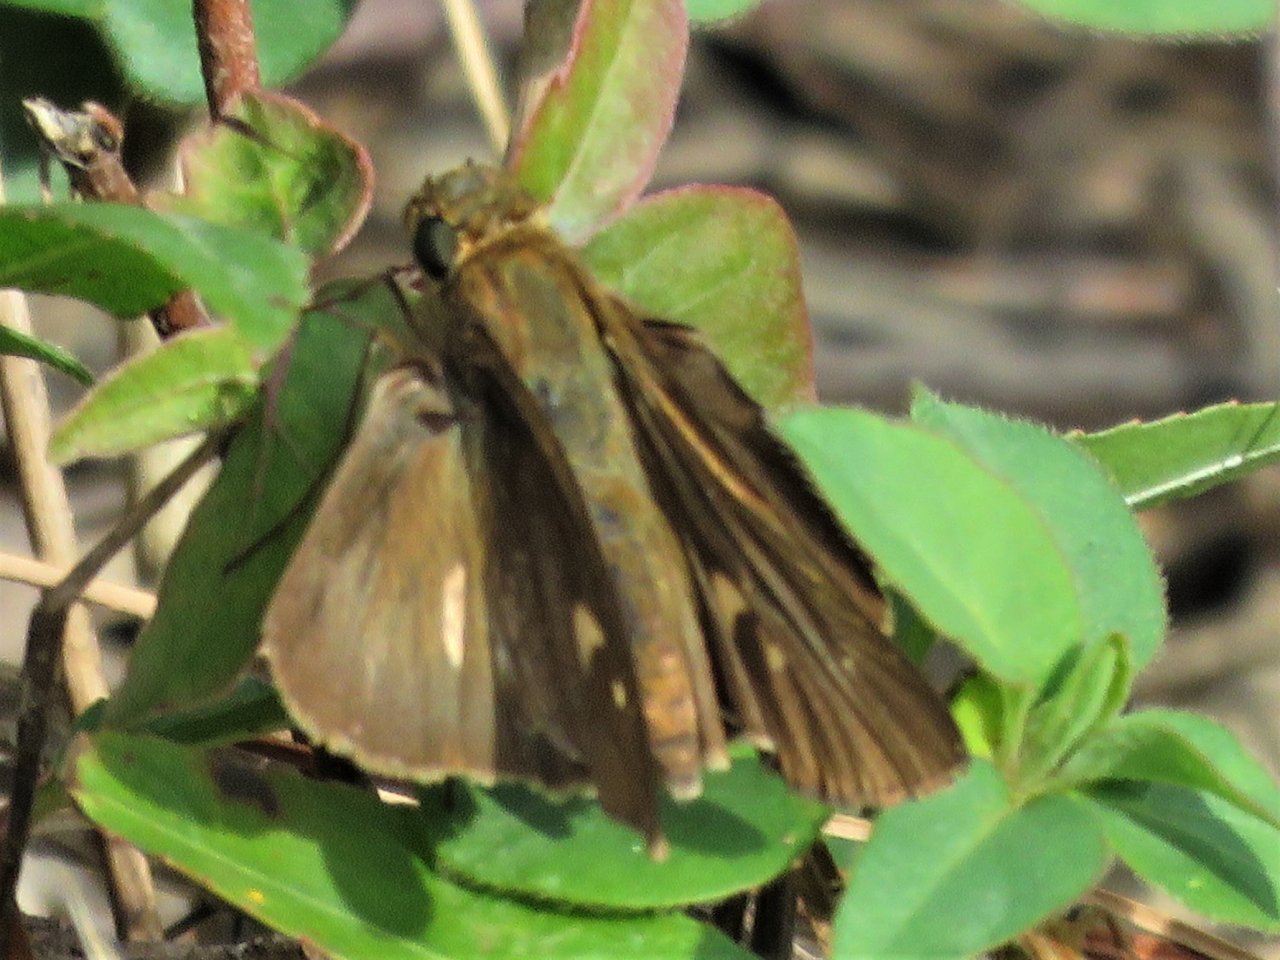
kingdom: Animalia
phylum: Arthropoda
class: Insecta
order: Lepidoptera
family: Hesperiidae
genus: Lerema
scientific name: Lerema accius
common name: Clouded Skipper
